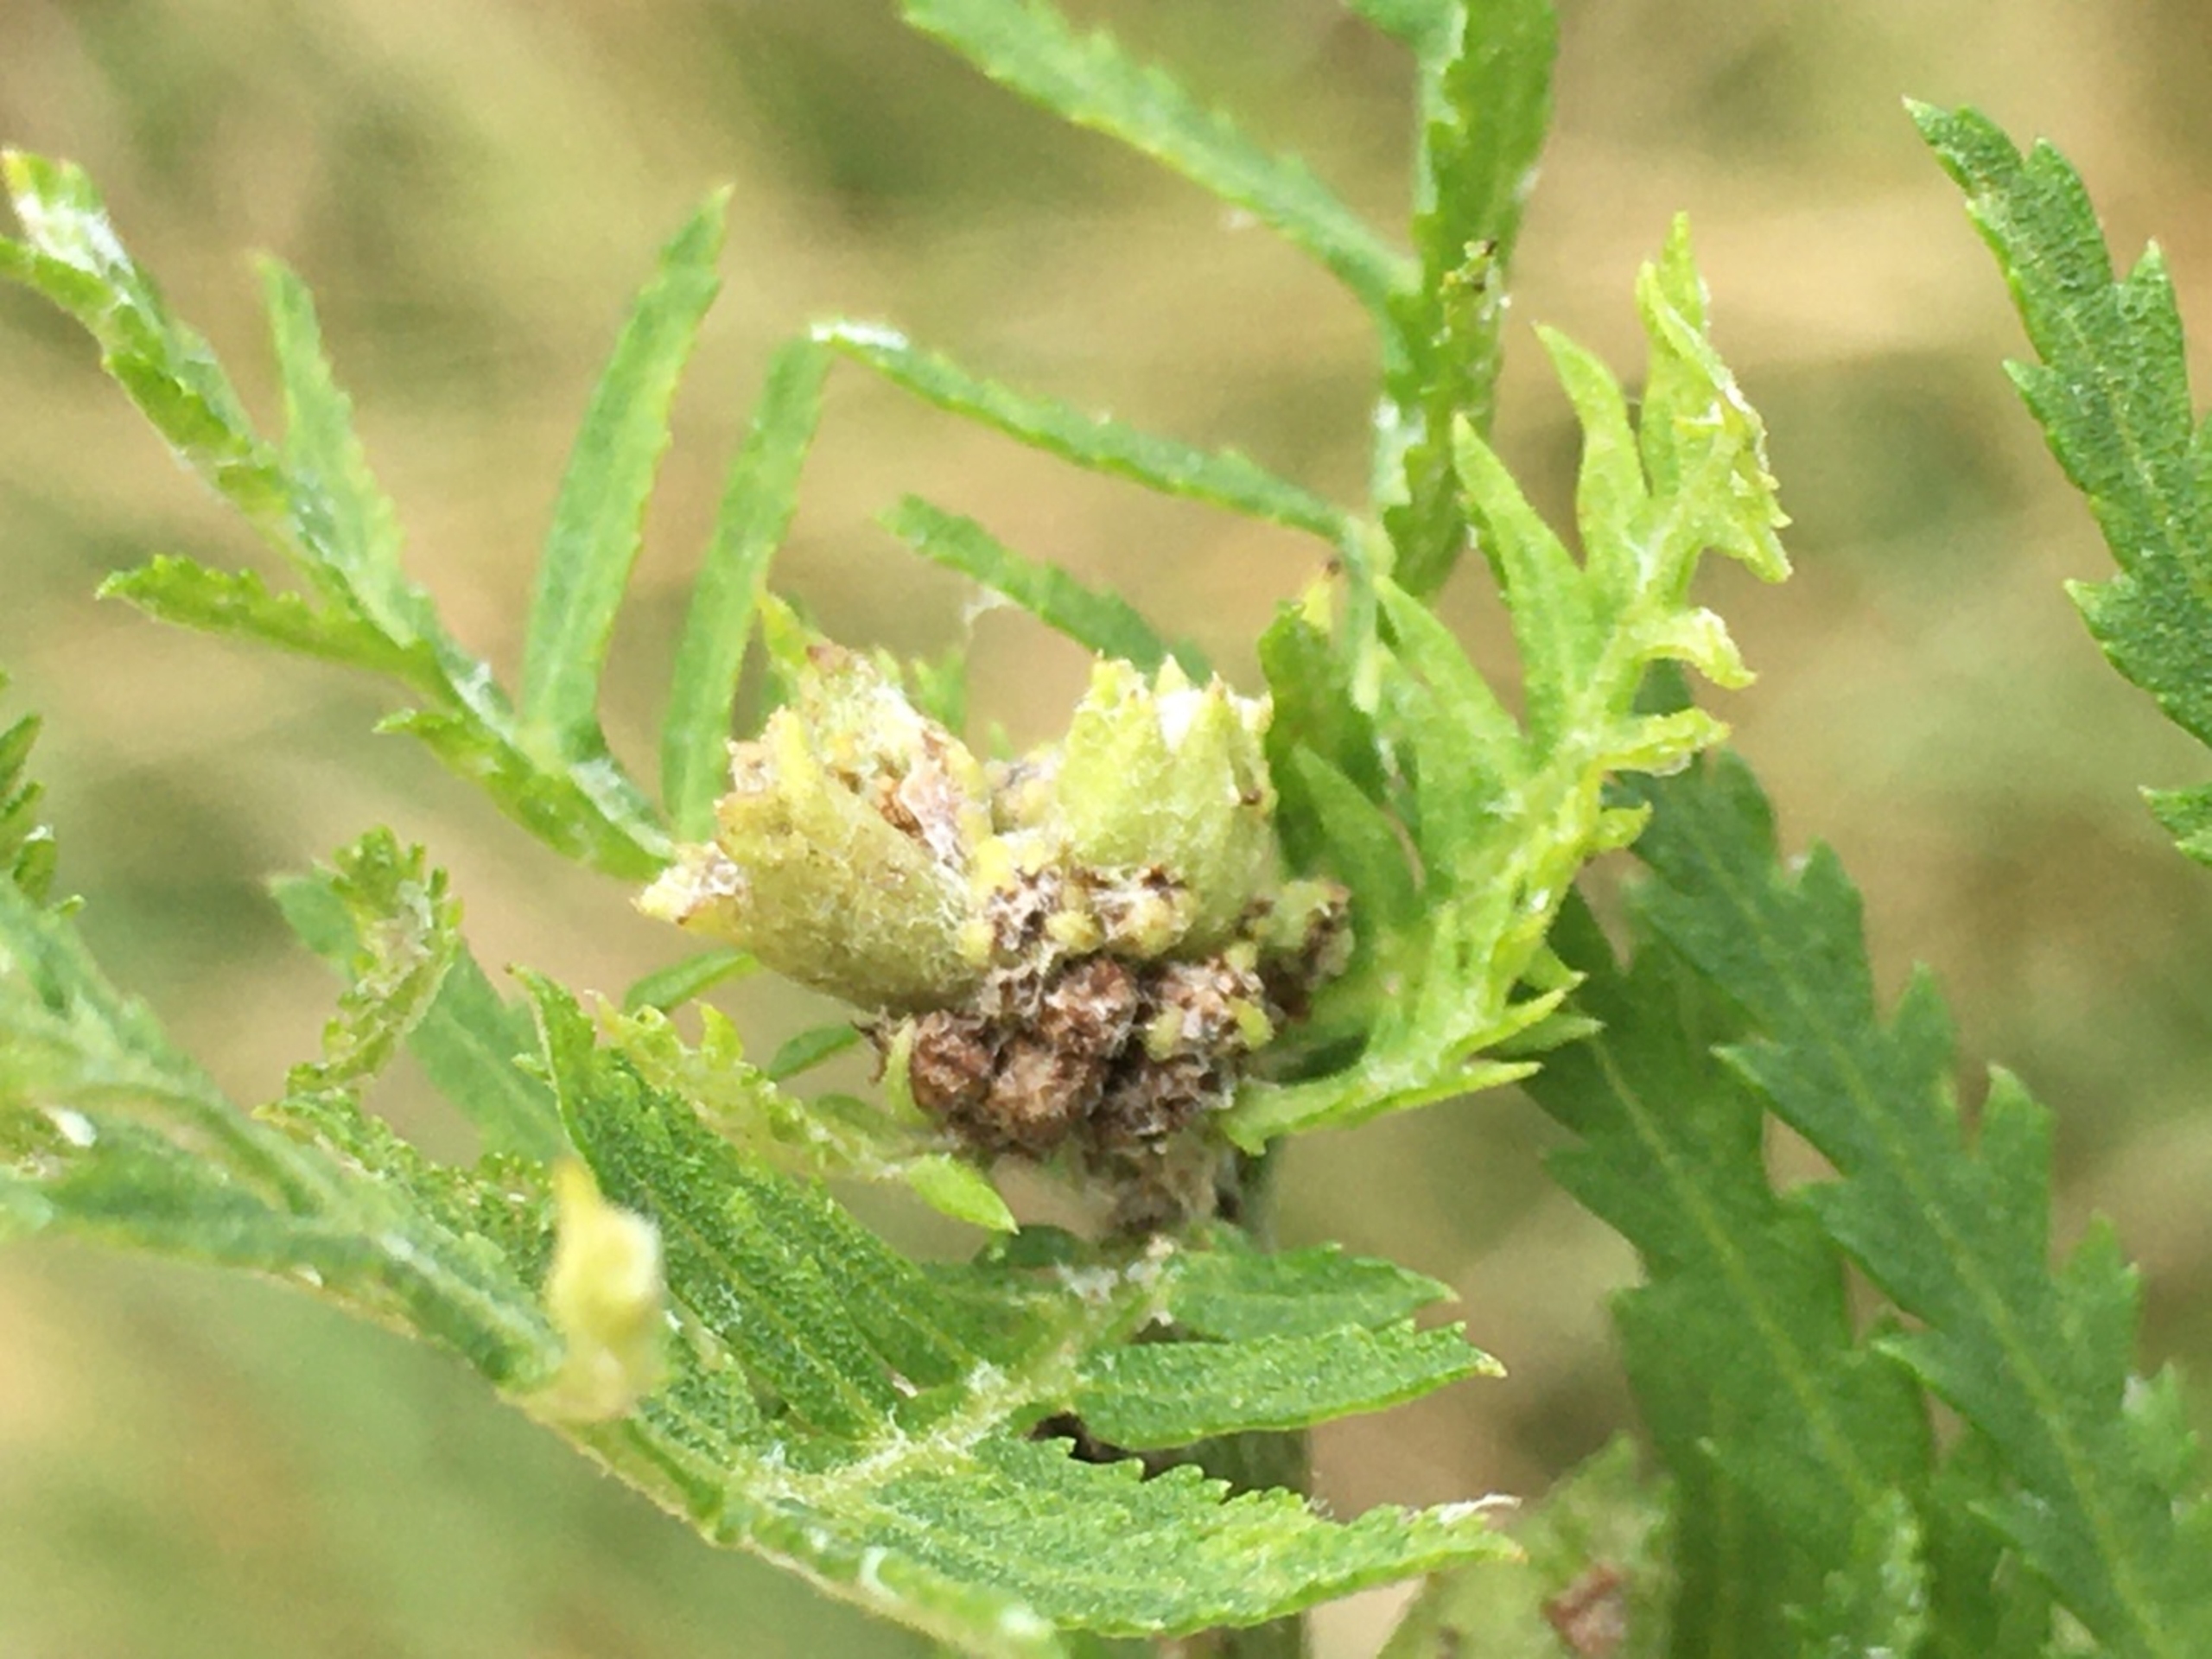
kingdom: Animalia
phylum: Arthropoda
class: Insecta
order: Diptera
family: Cecidomyiidae
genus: Rhopalomyia
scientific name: Rhopalomyia tanaceticolus
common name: Rejnfangalmyg
